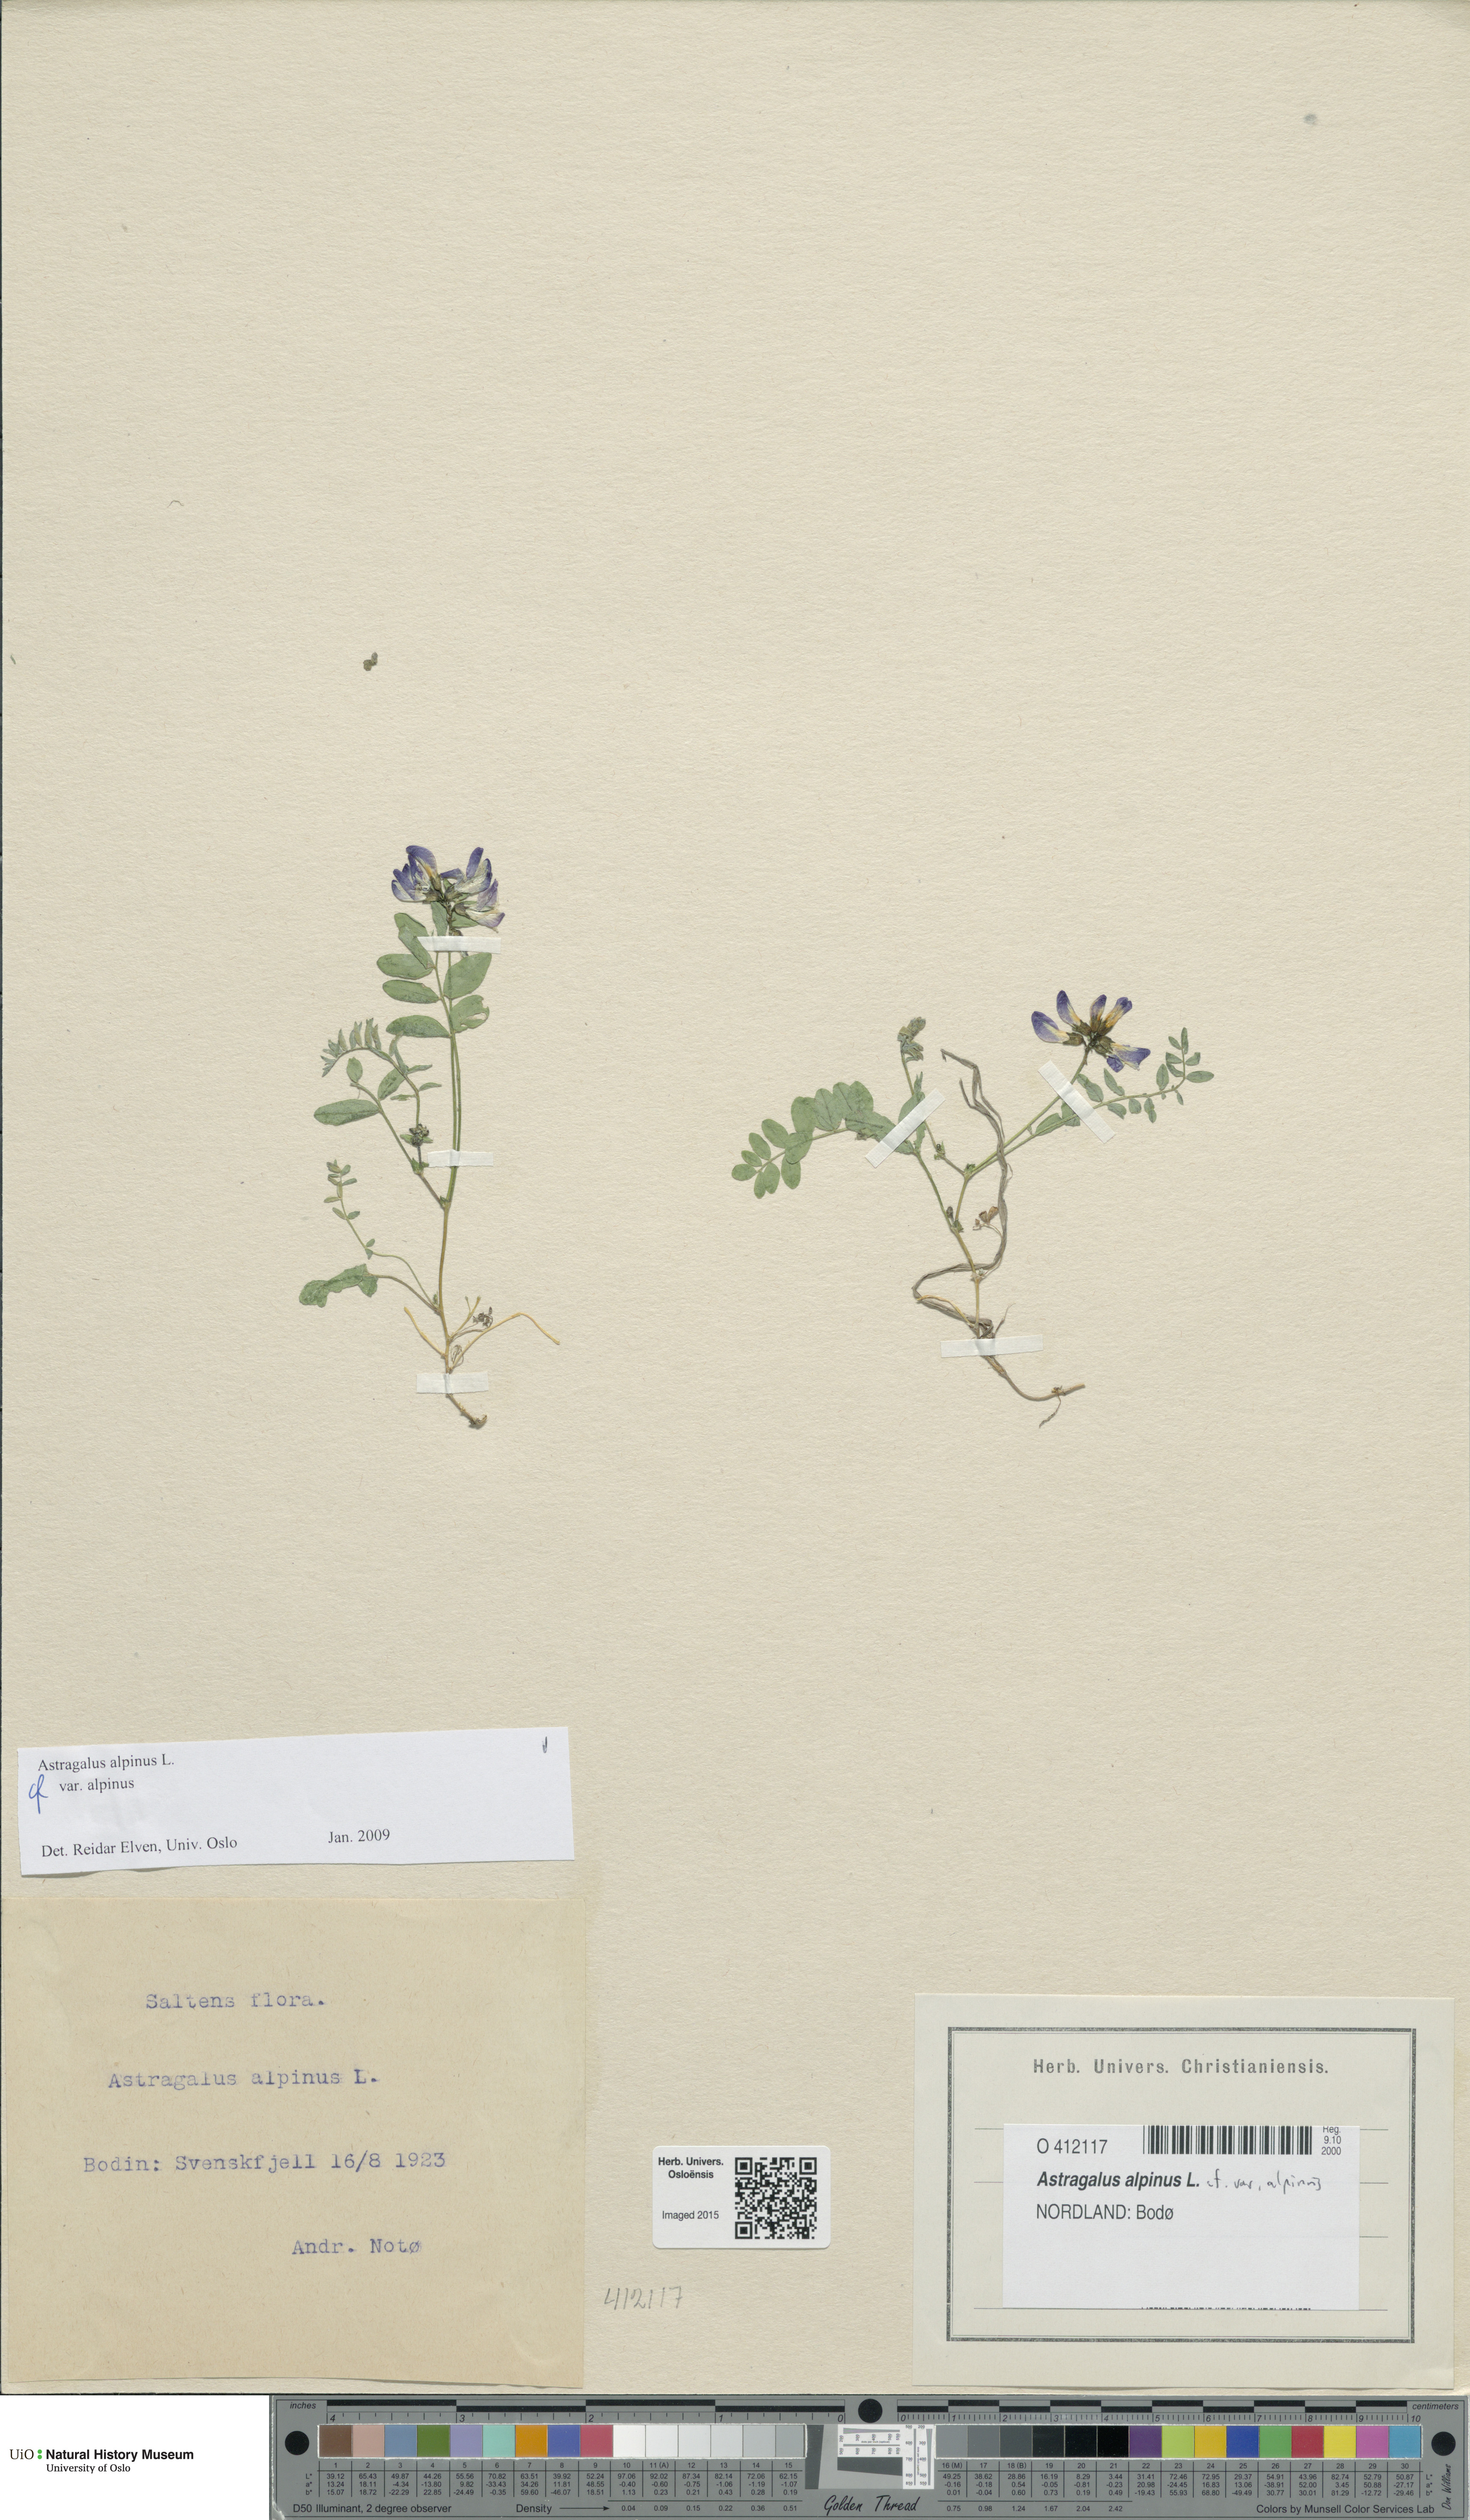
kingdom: Plantae
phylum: Tracheophyta
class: Magnoliopsida
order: Fabales
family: Fabaceae
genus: Astragalus
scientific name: Astragalus alpinus
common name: Alpine milk-vetch
